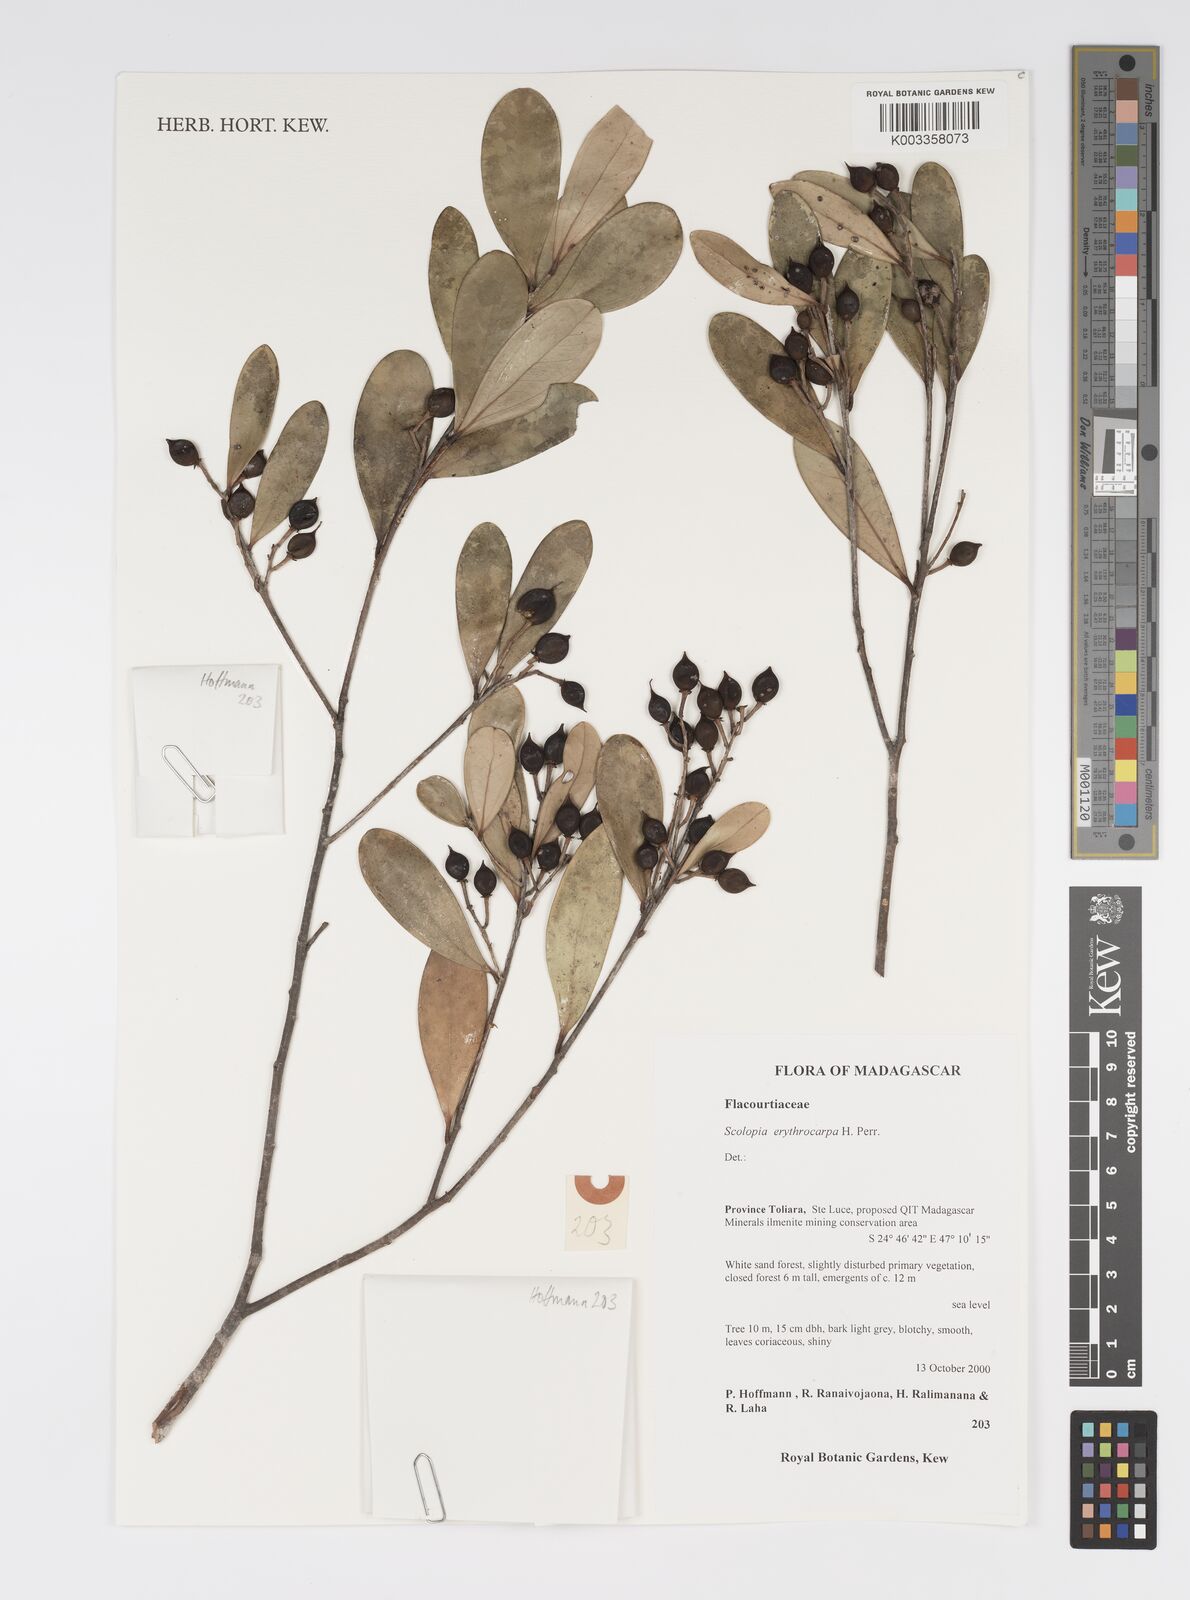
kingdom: Plantae
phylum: Tracheophyta
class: Magnoliopsida
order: Malpighiales
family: Salicaceae
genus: Scolopia
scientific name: Scolopia erythrocarpa
